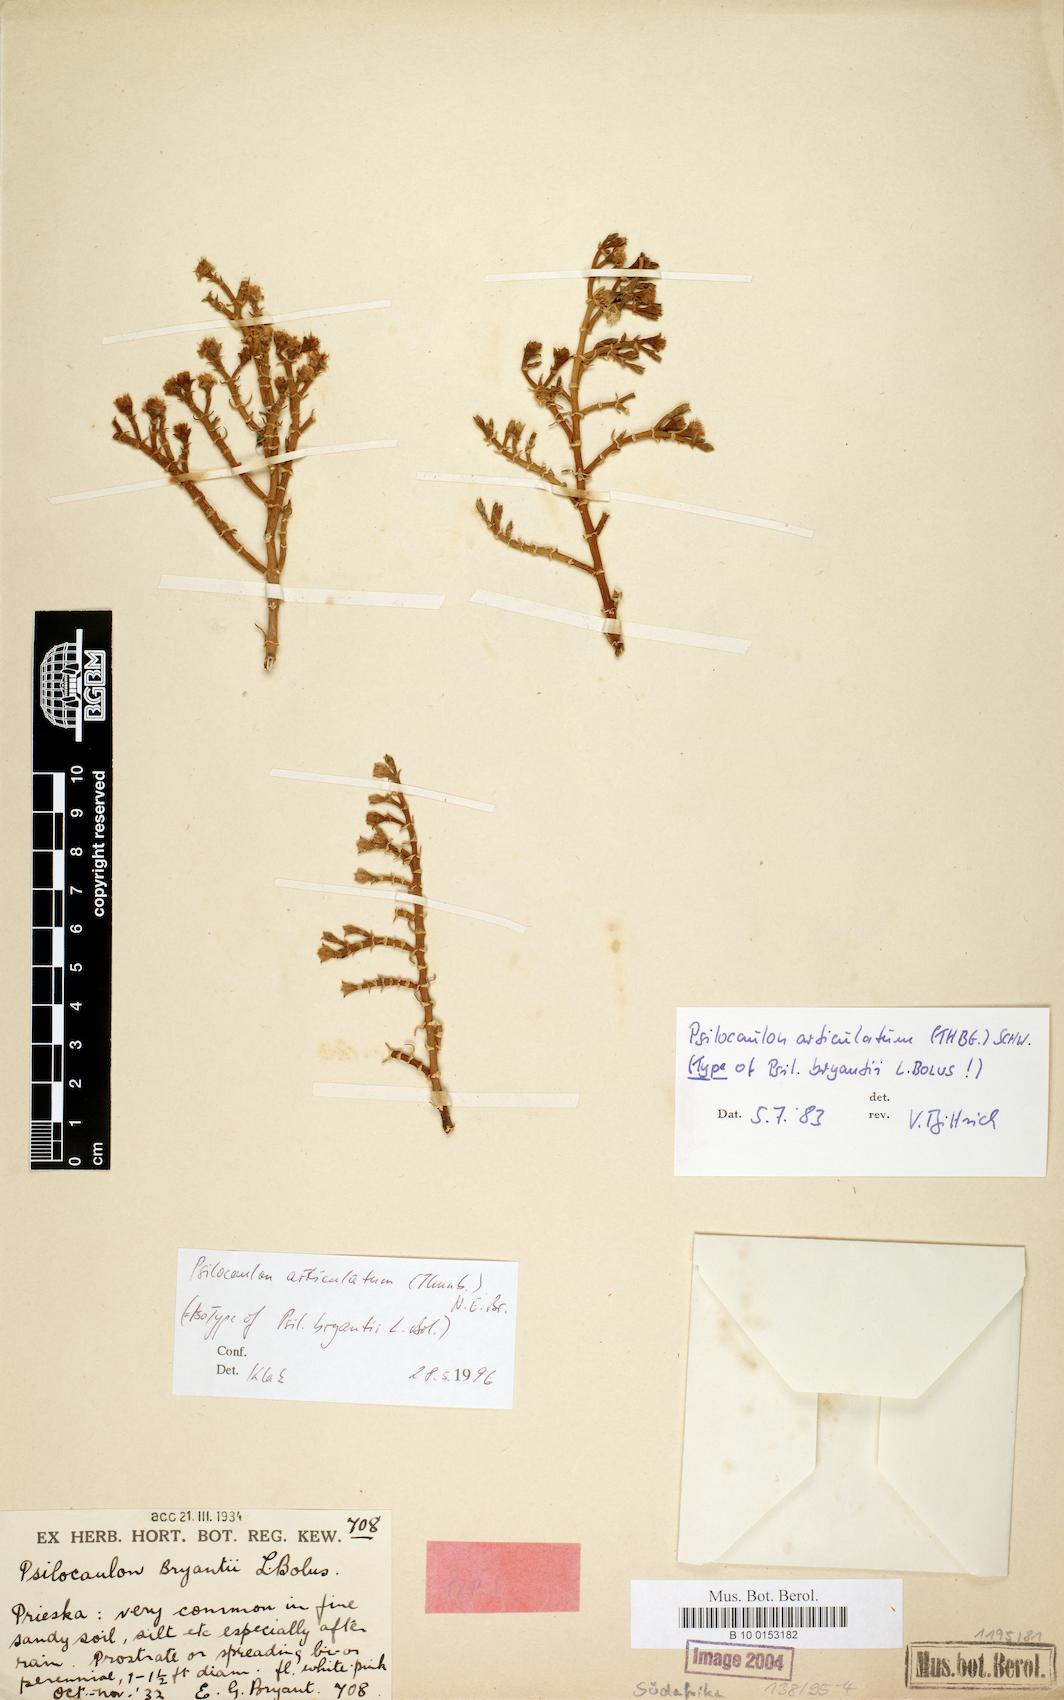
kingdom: Plantae
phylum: Tracheophyta
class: Magnoliopsida
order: Caryophyllales
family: Aizoaceae
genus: Mesembryanthemum
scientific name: Mesembryanthemum articulatum
